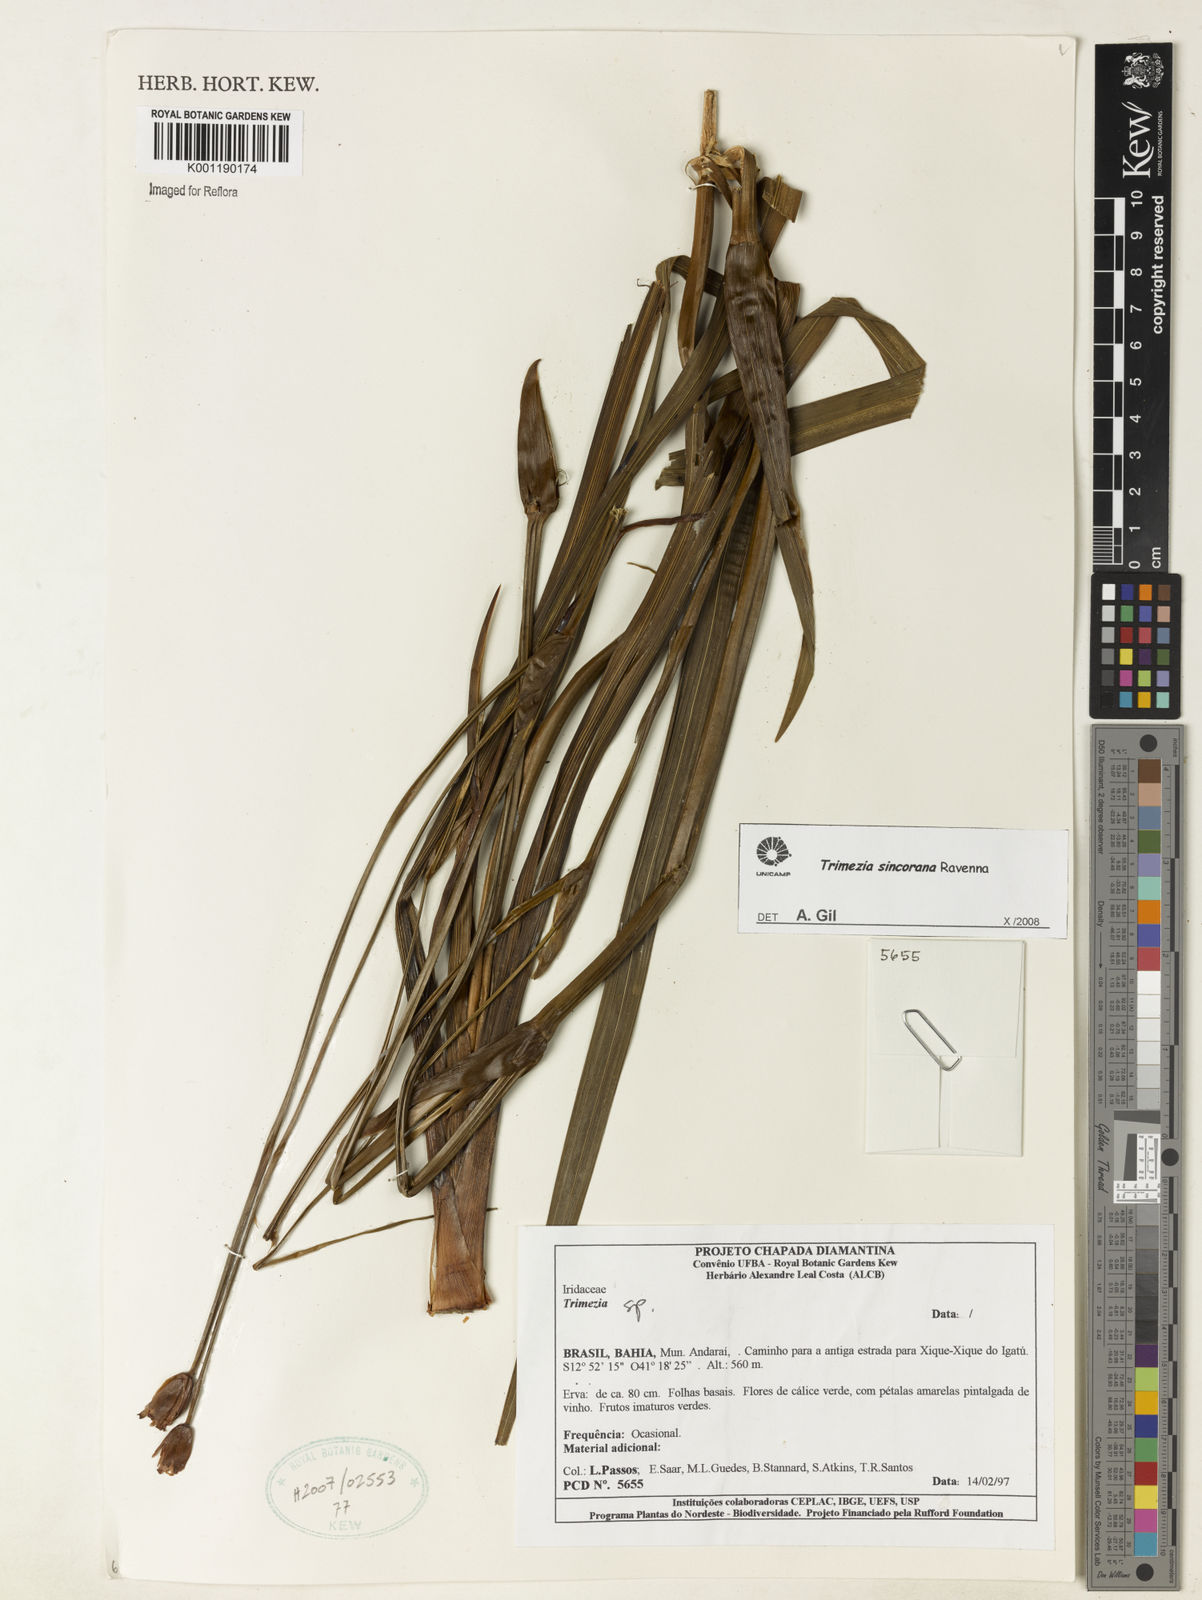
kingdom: Plantae
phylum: Tracheophyta
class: Liliopsida
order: Asparagales
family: Iridaceae
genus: Trimezia
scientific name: Trimezia spathata
